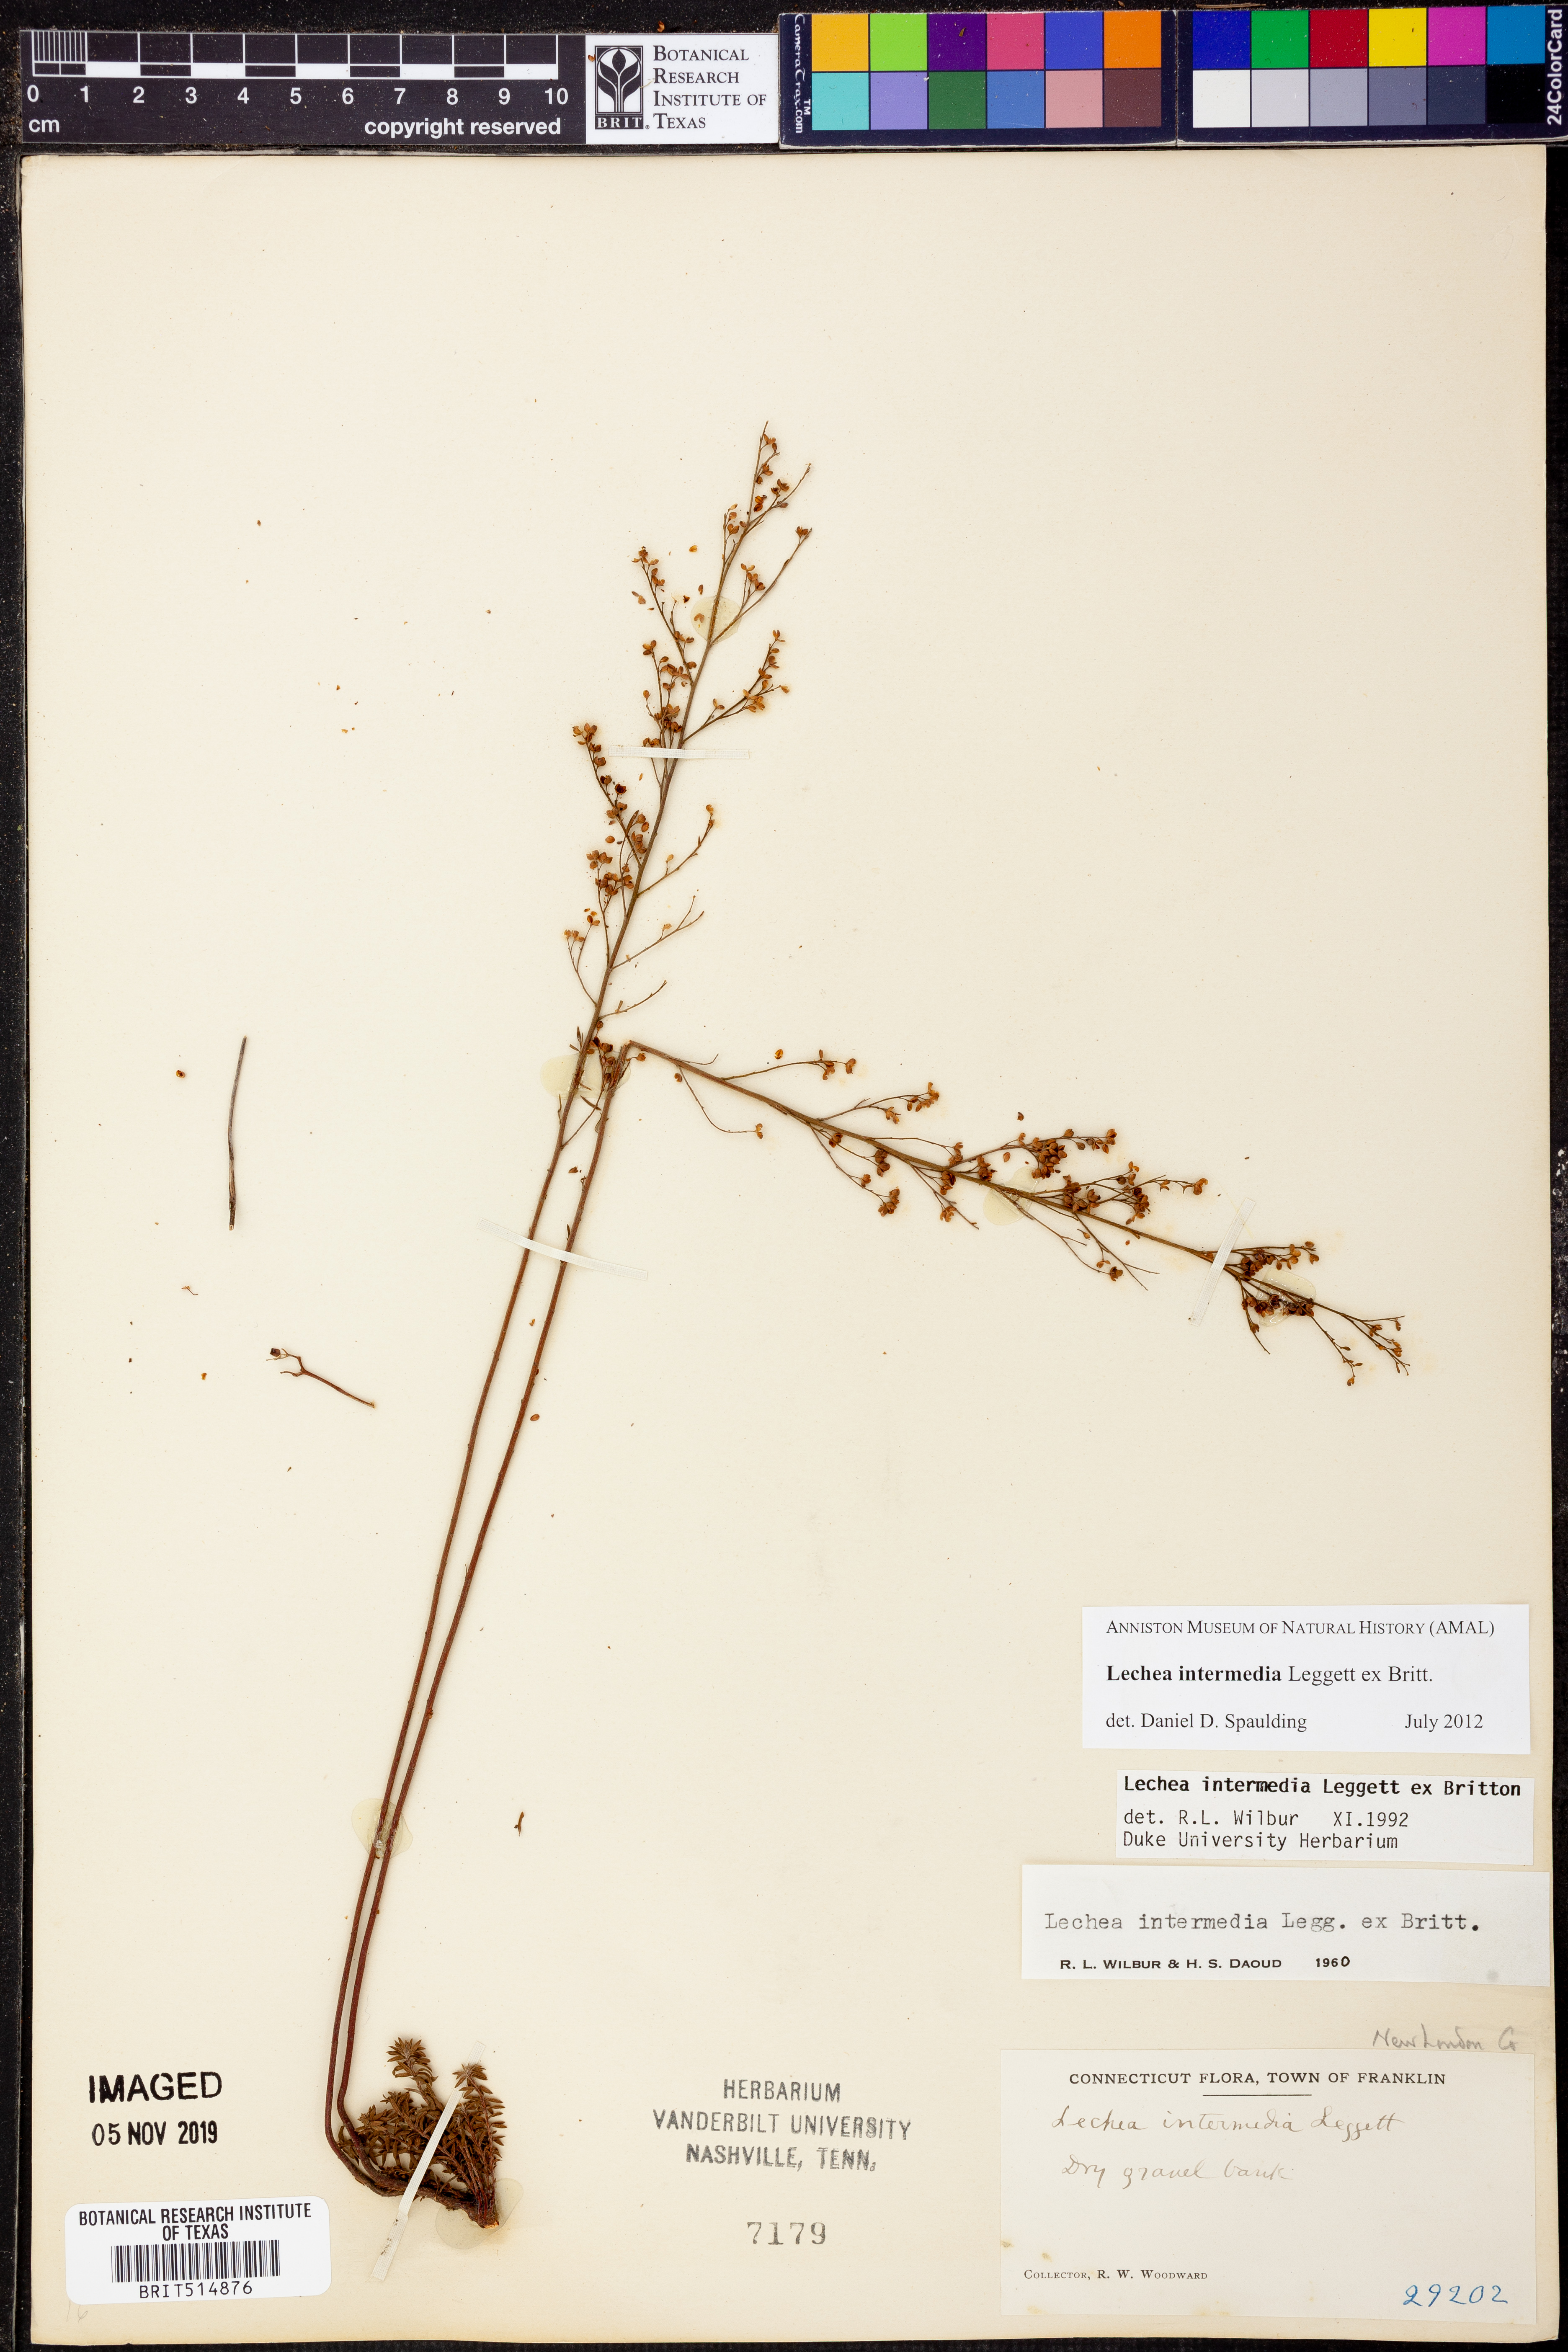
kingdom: Plantae
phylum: Tracheophyta
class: Magnoliopsida
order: Malvales
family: Cistaceae
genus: Lechea
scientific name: Lechea intermedia
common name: Intermediate pinweed
